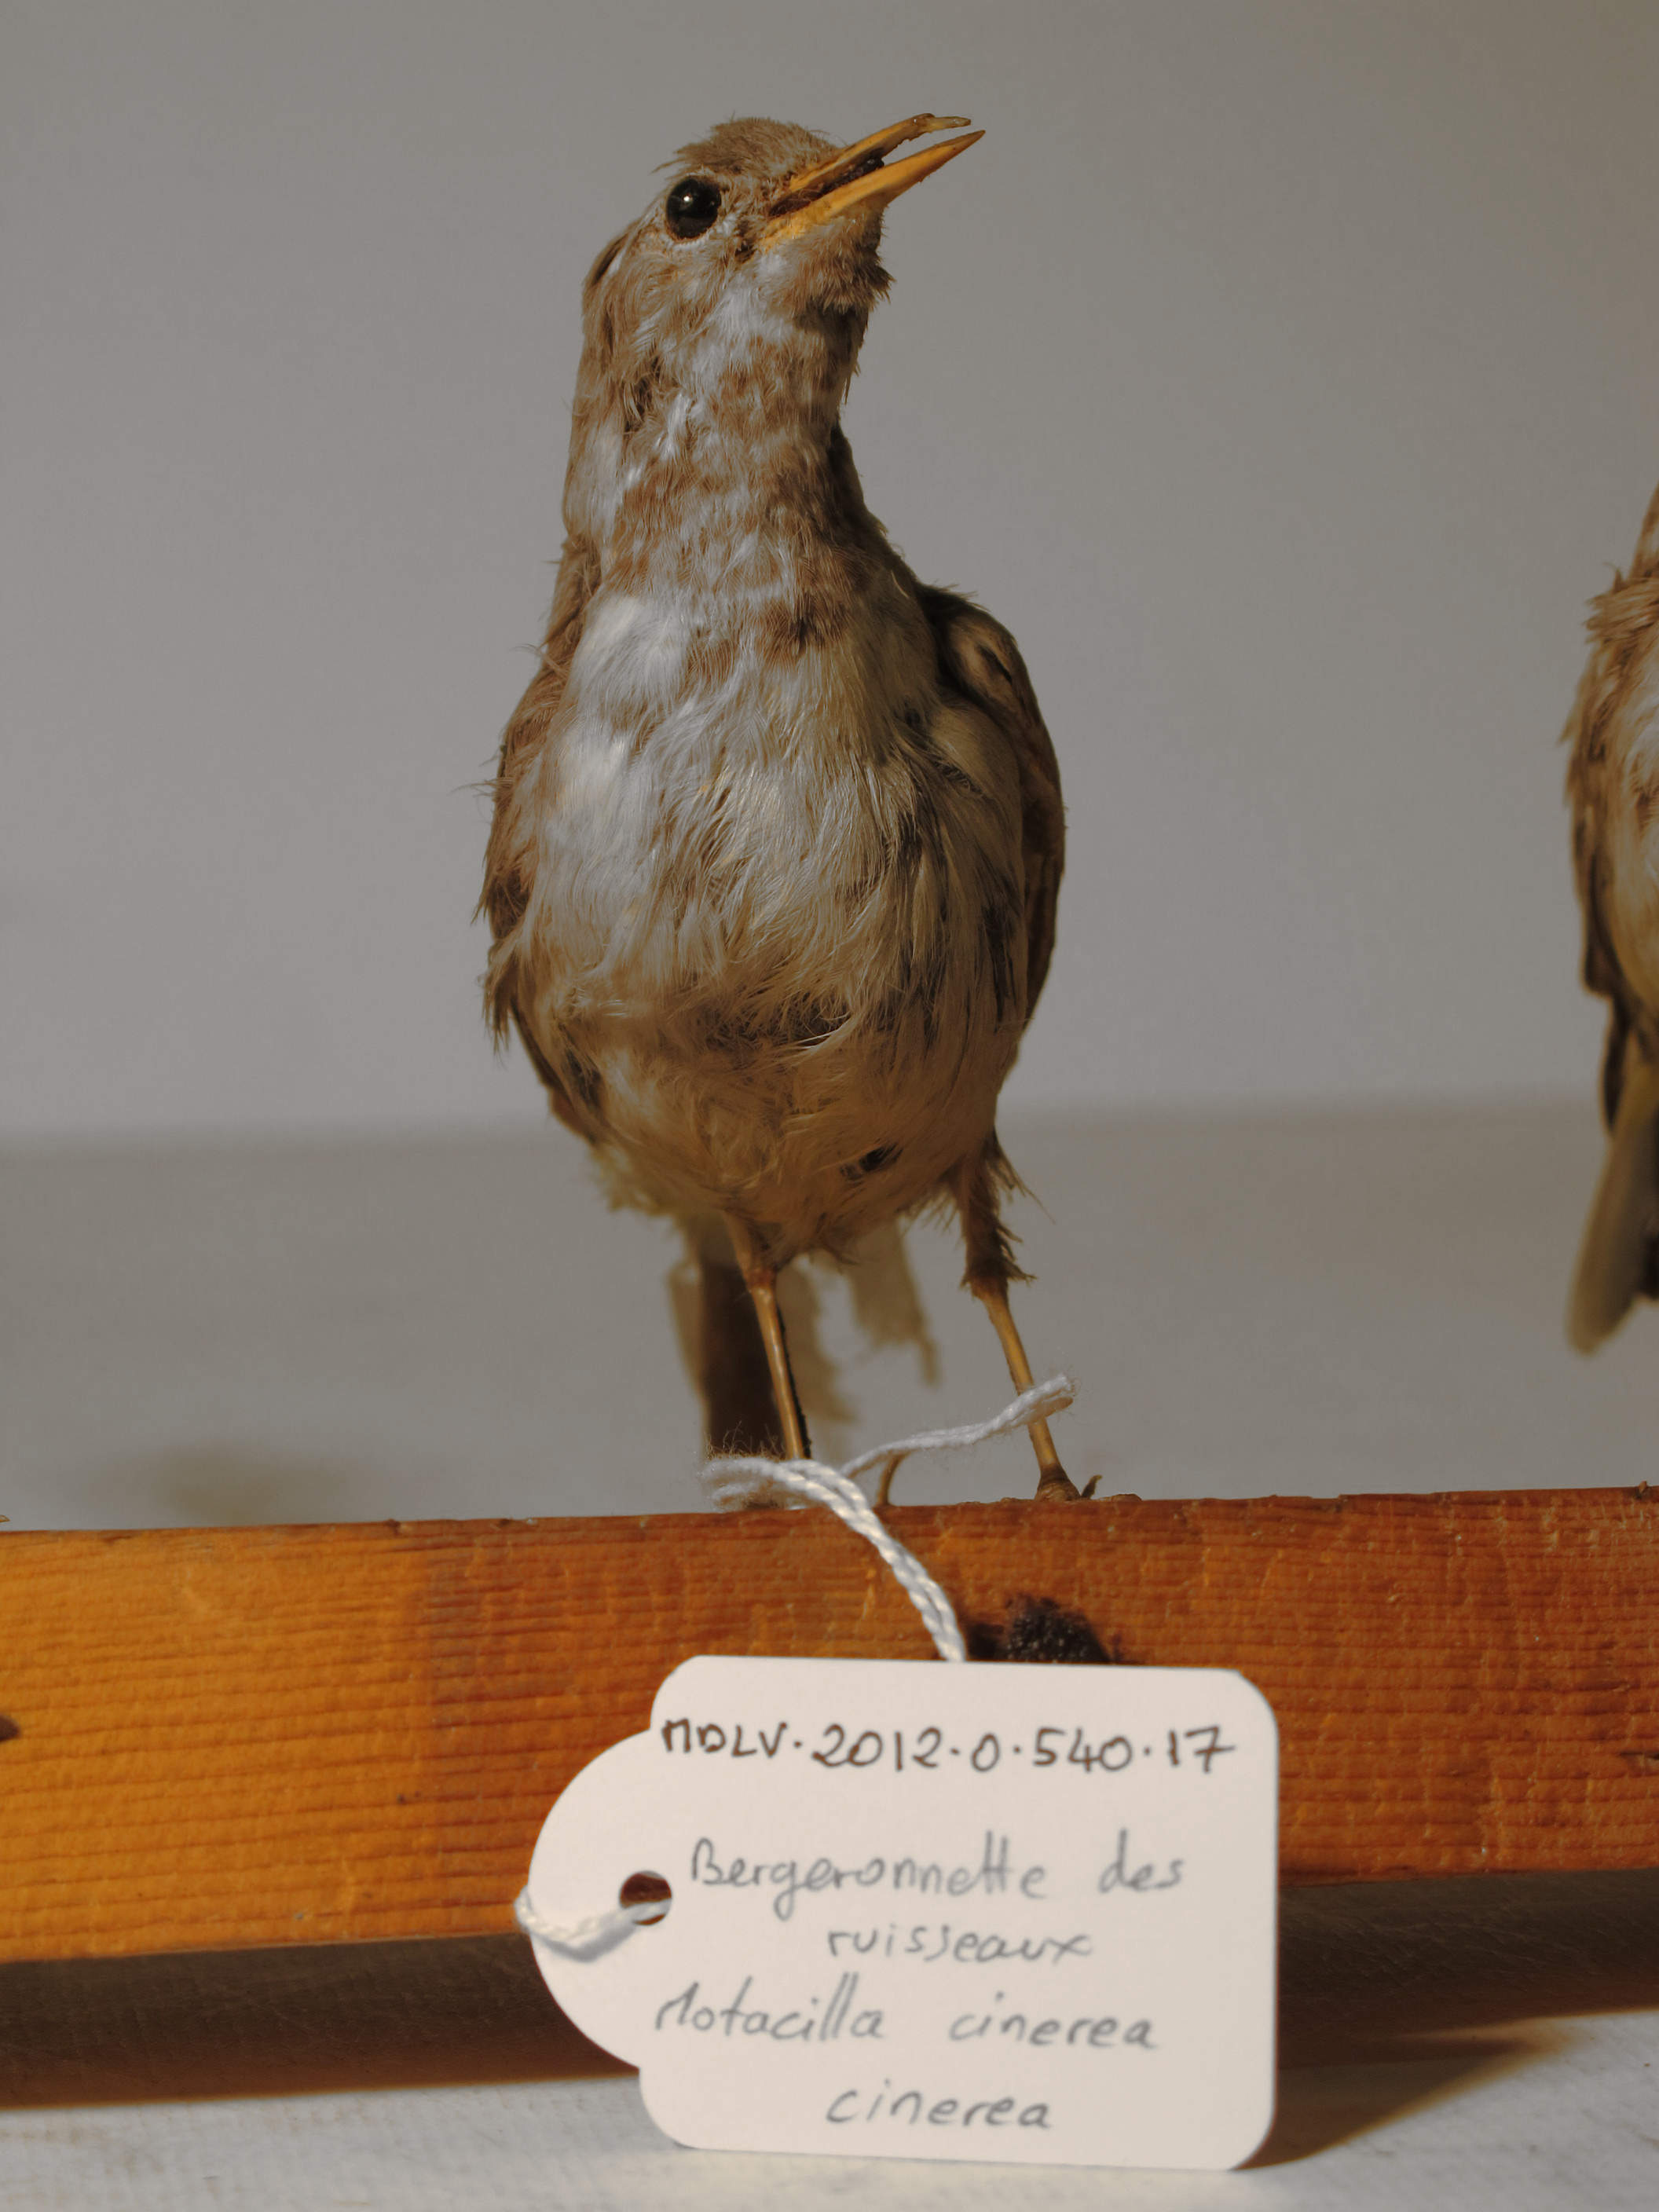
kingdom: Animalia
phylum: Chordata
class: Aves
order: Passeriformes
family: Motacillidae
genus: Motacilla
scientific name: Motacilla cinerea
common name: Grey Wagtail
